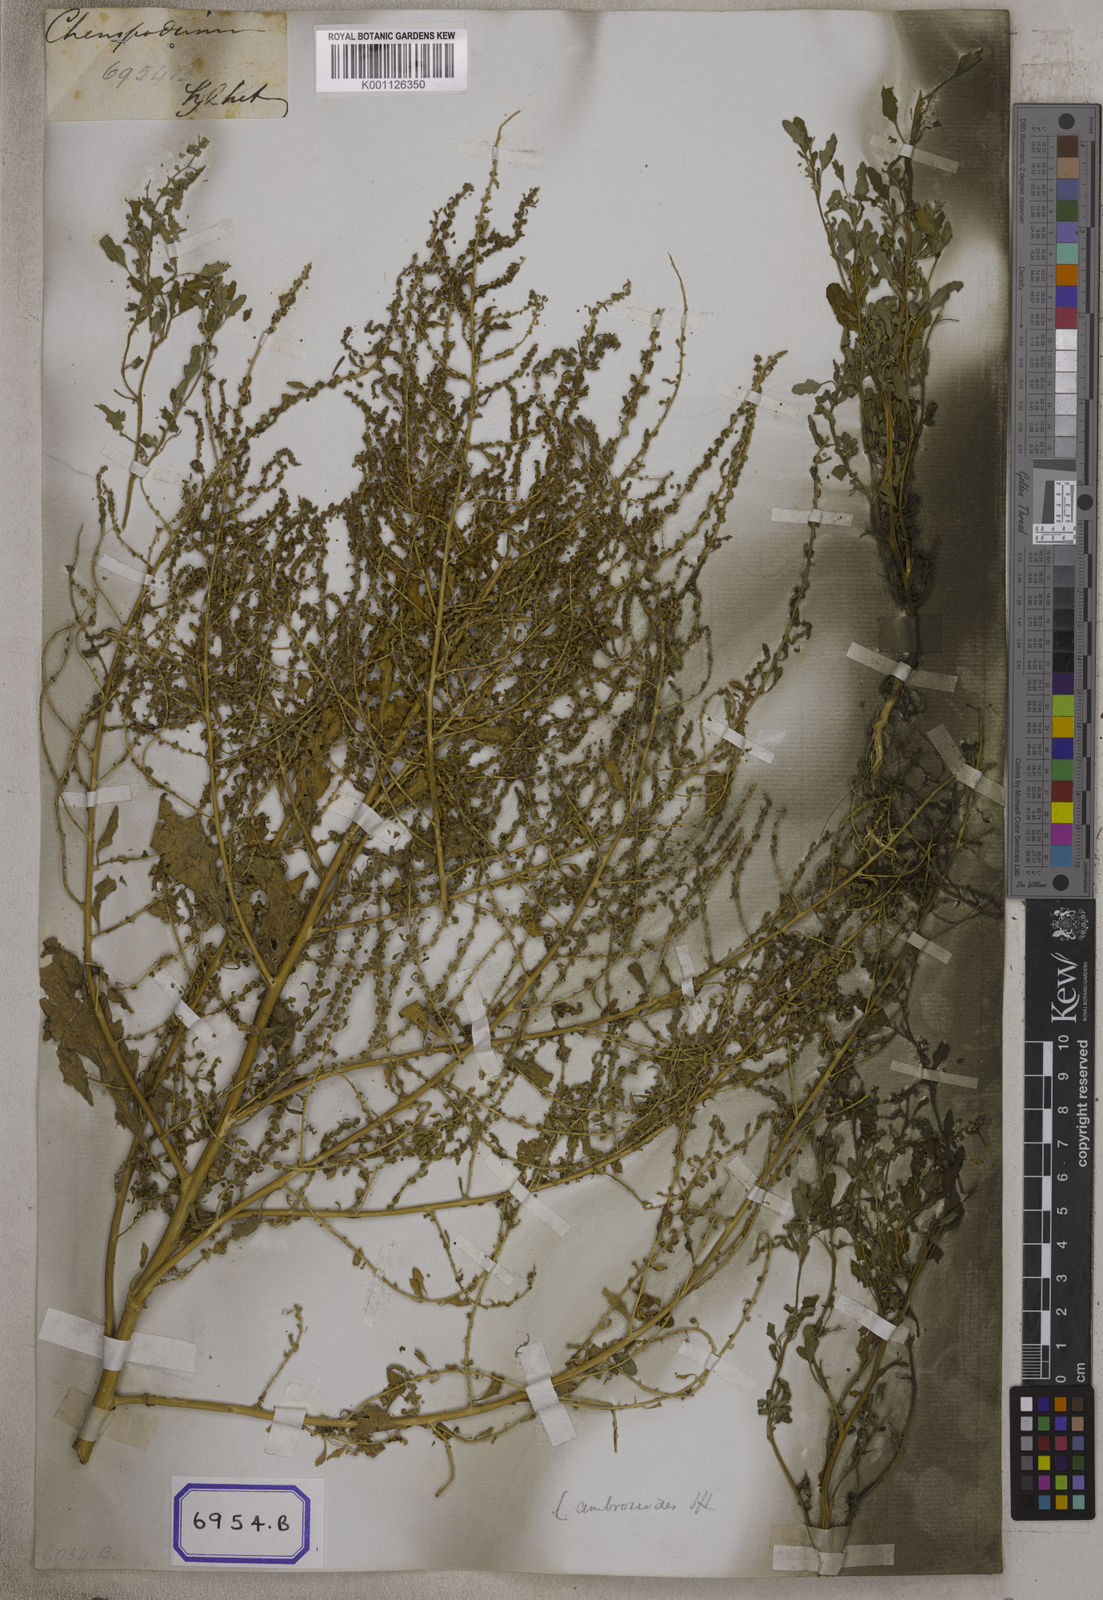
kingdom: Plantae
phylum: Tracheophyta
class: Magnoliopsida
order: Caryophyllales
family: Amaranthaceae
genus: Chenopodium
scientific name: Chenopodium album
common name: Fat-hen
